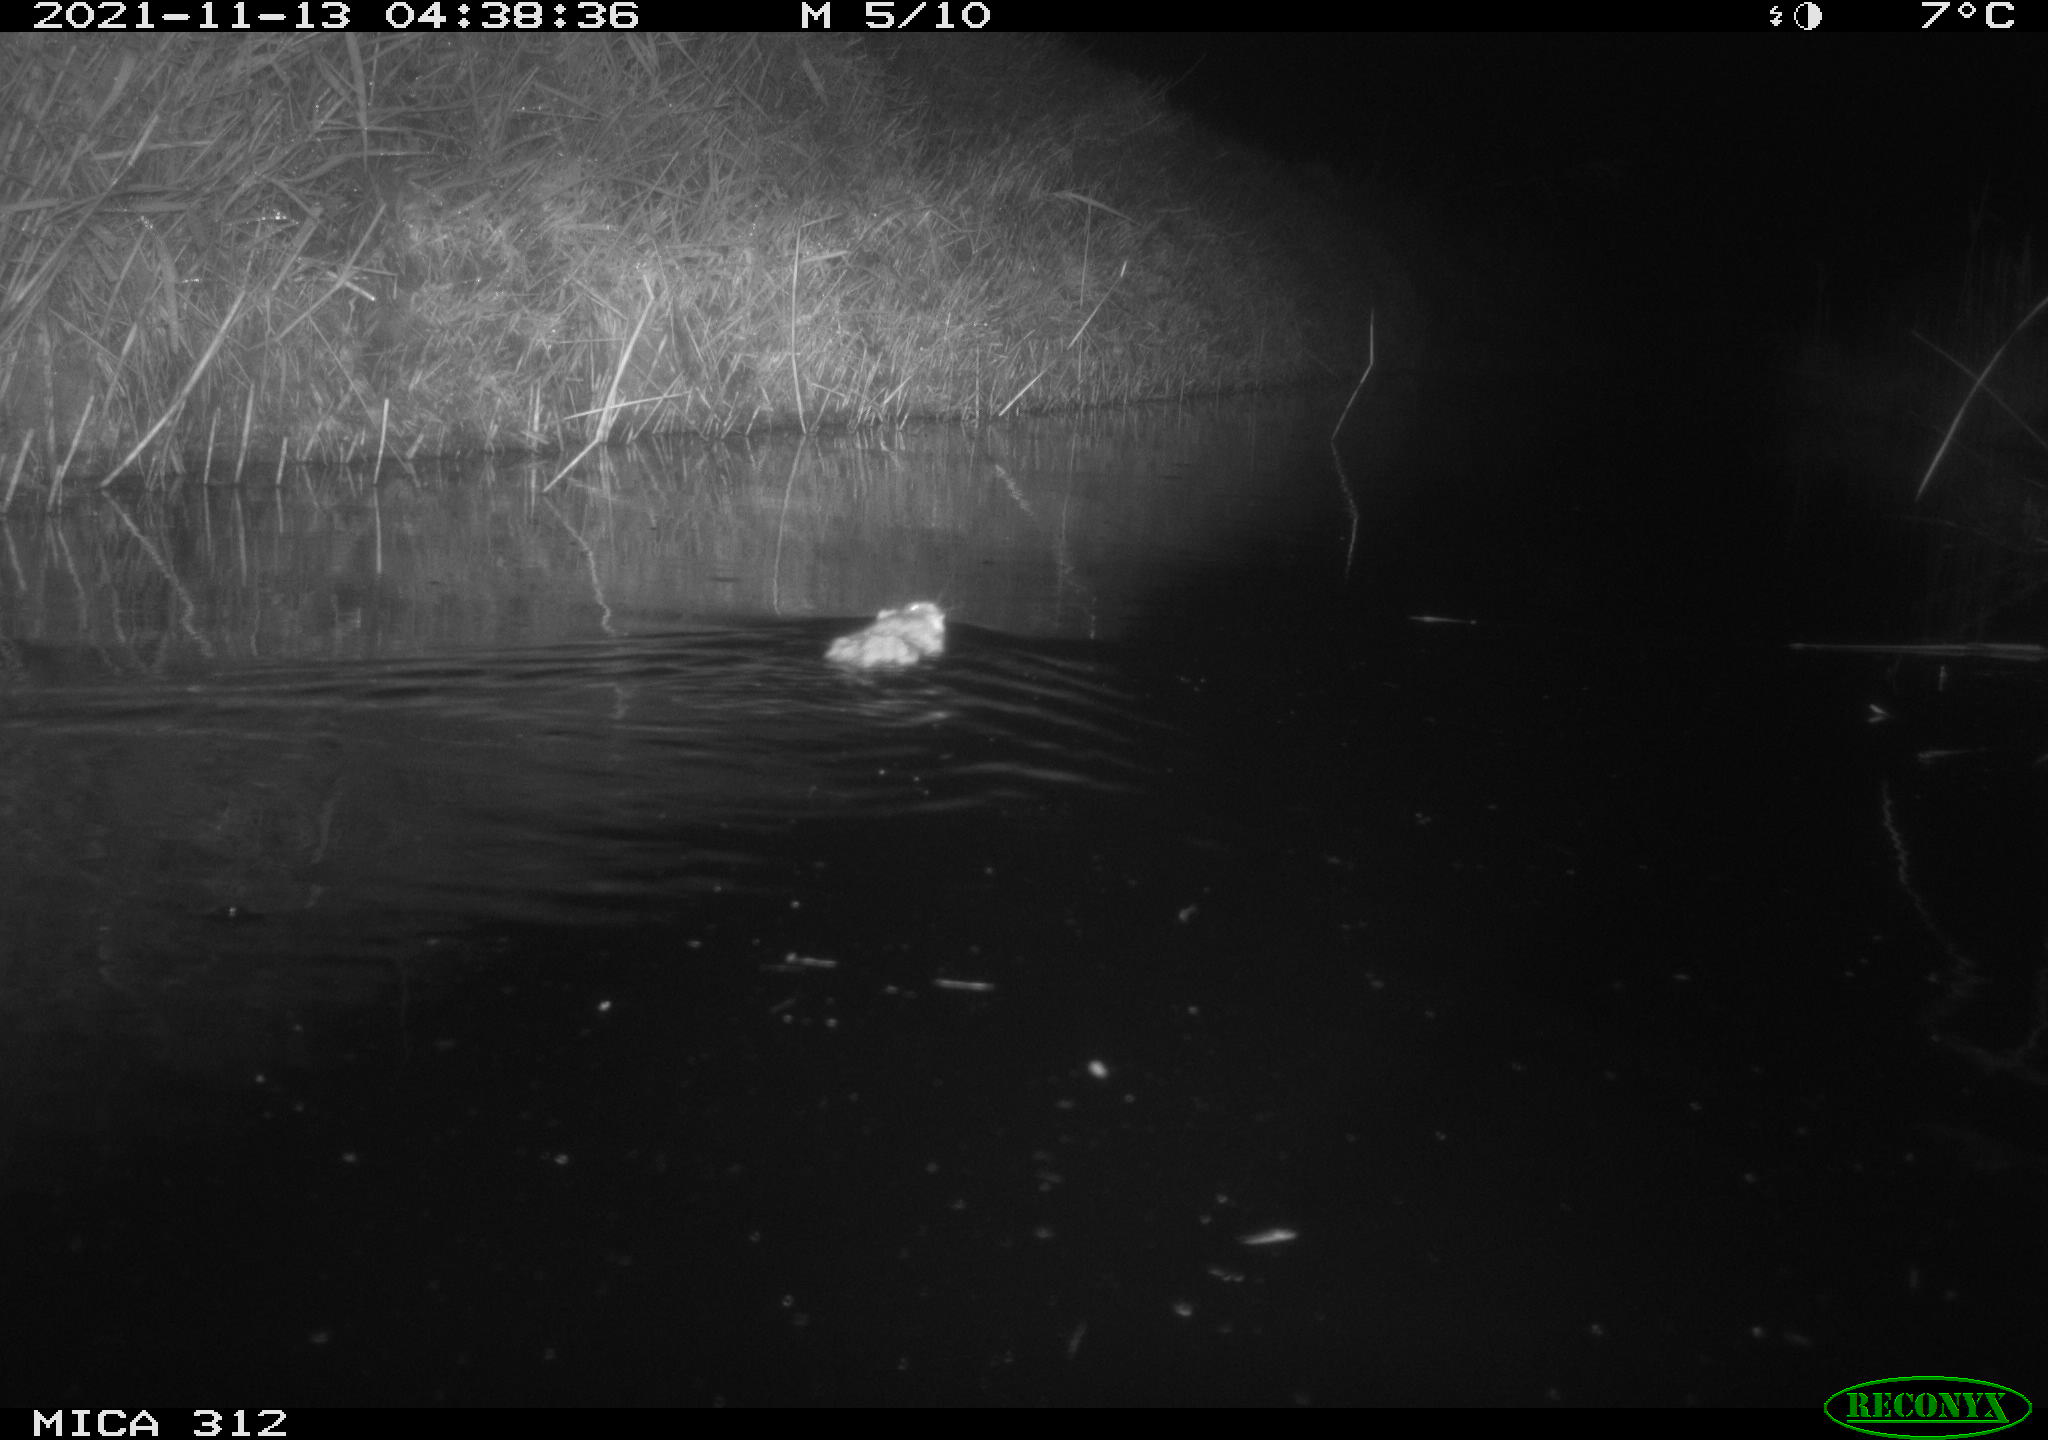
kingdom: Animalia
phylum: Chordata
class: Mammalia
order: Rodentia
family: Muridae
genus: Rattus
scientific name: Rattus norvegicus
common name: Brown rat
